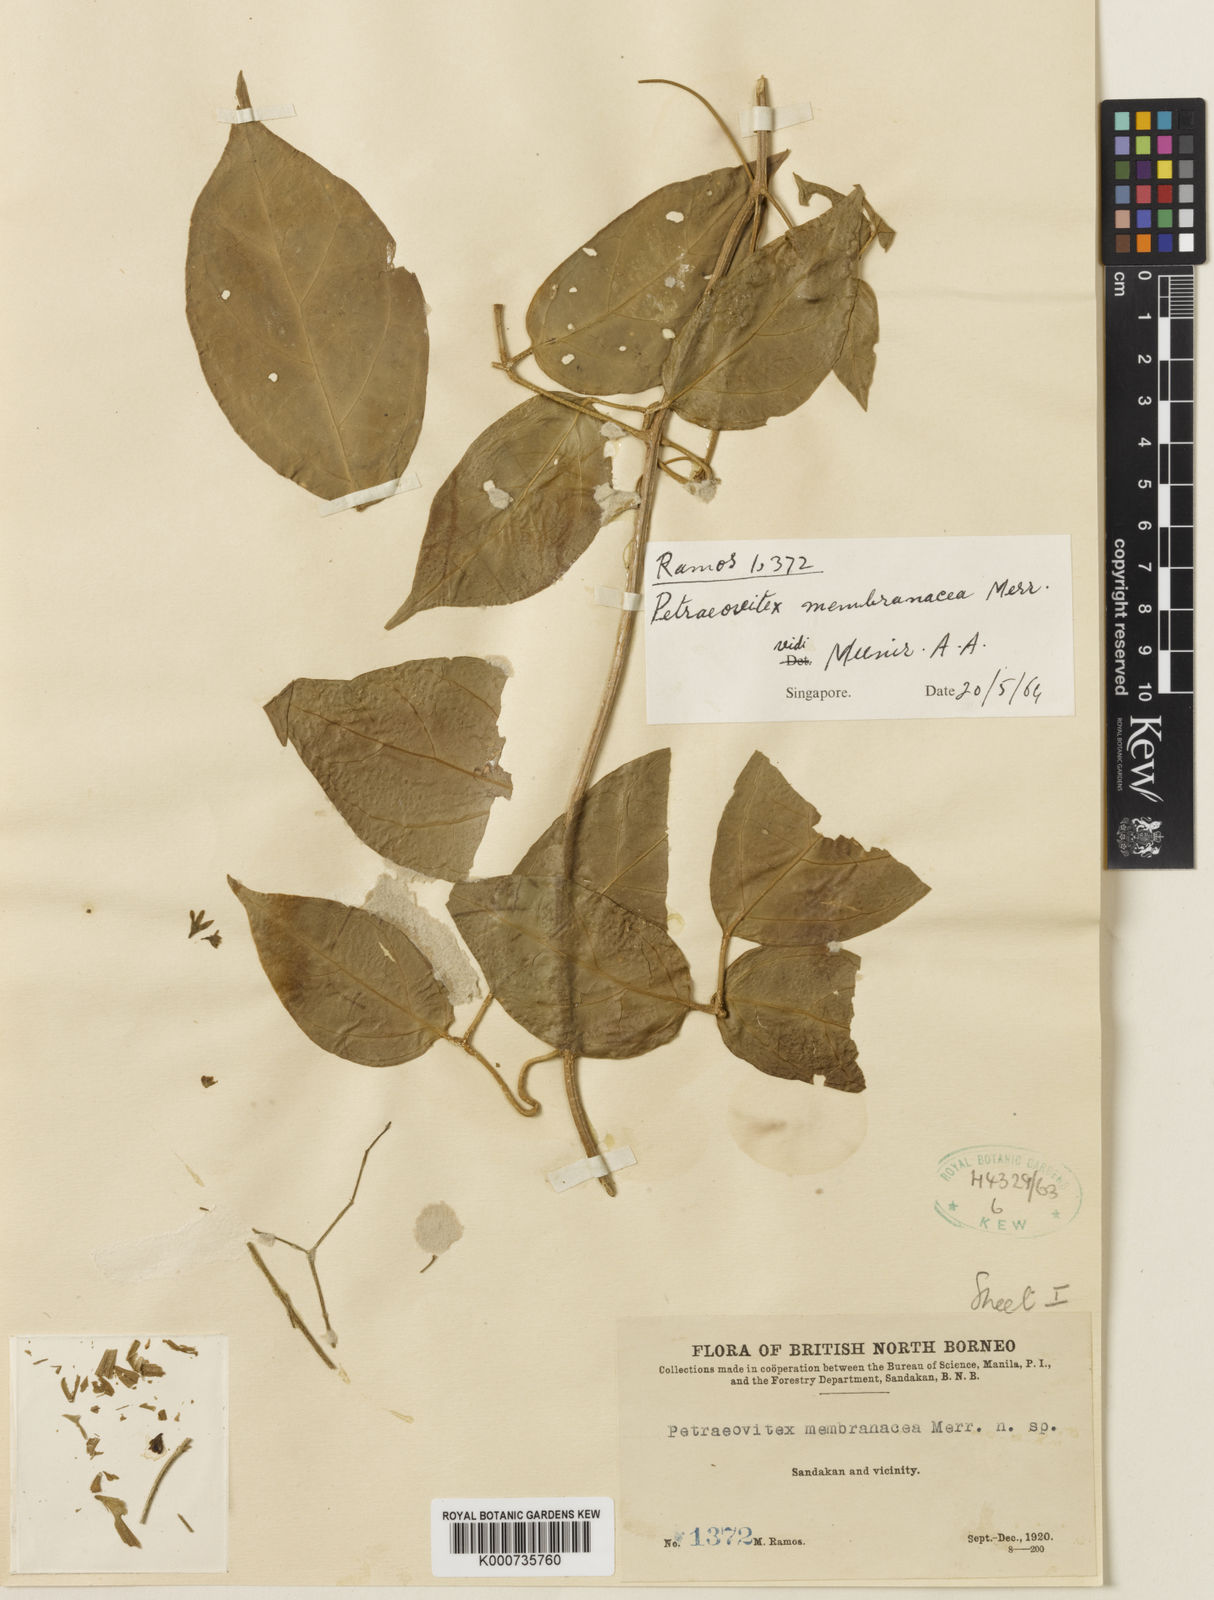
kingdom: Plantae
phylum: Tracheophyta
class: Magnoliopsida
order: Lamiales
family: Lamiaceae
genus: Petraeovitex
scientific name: Petraeovitex membranacea
